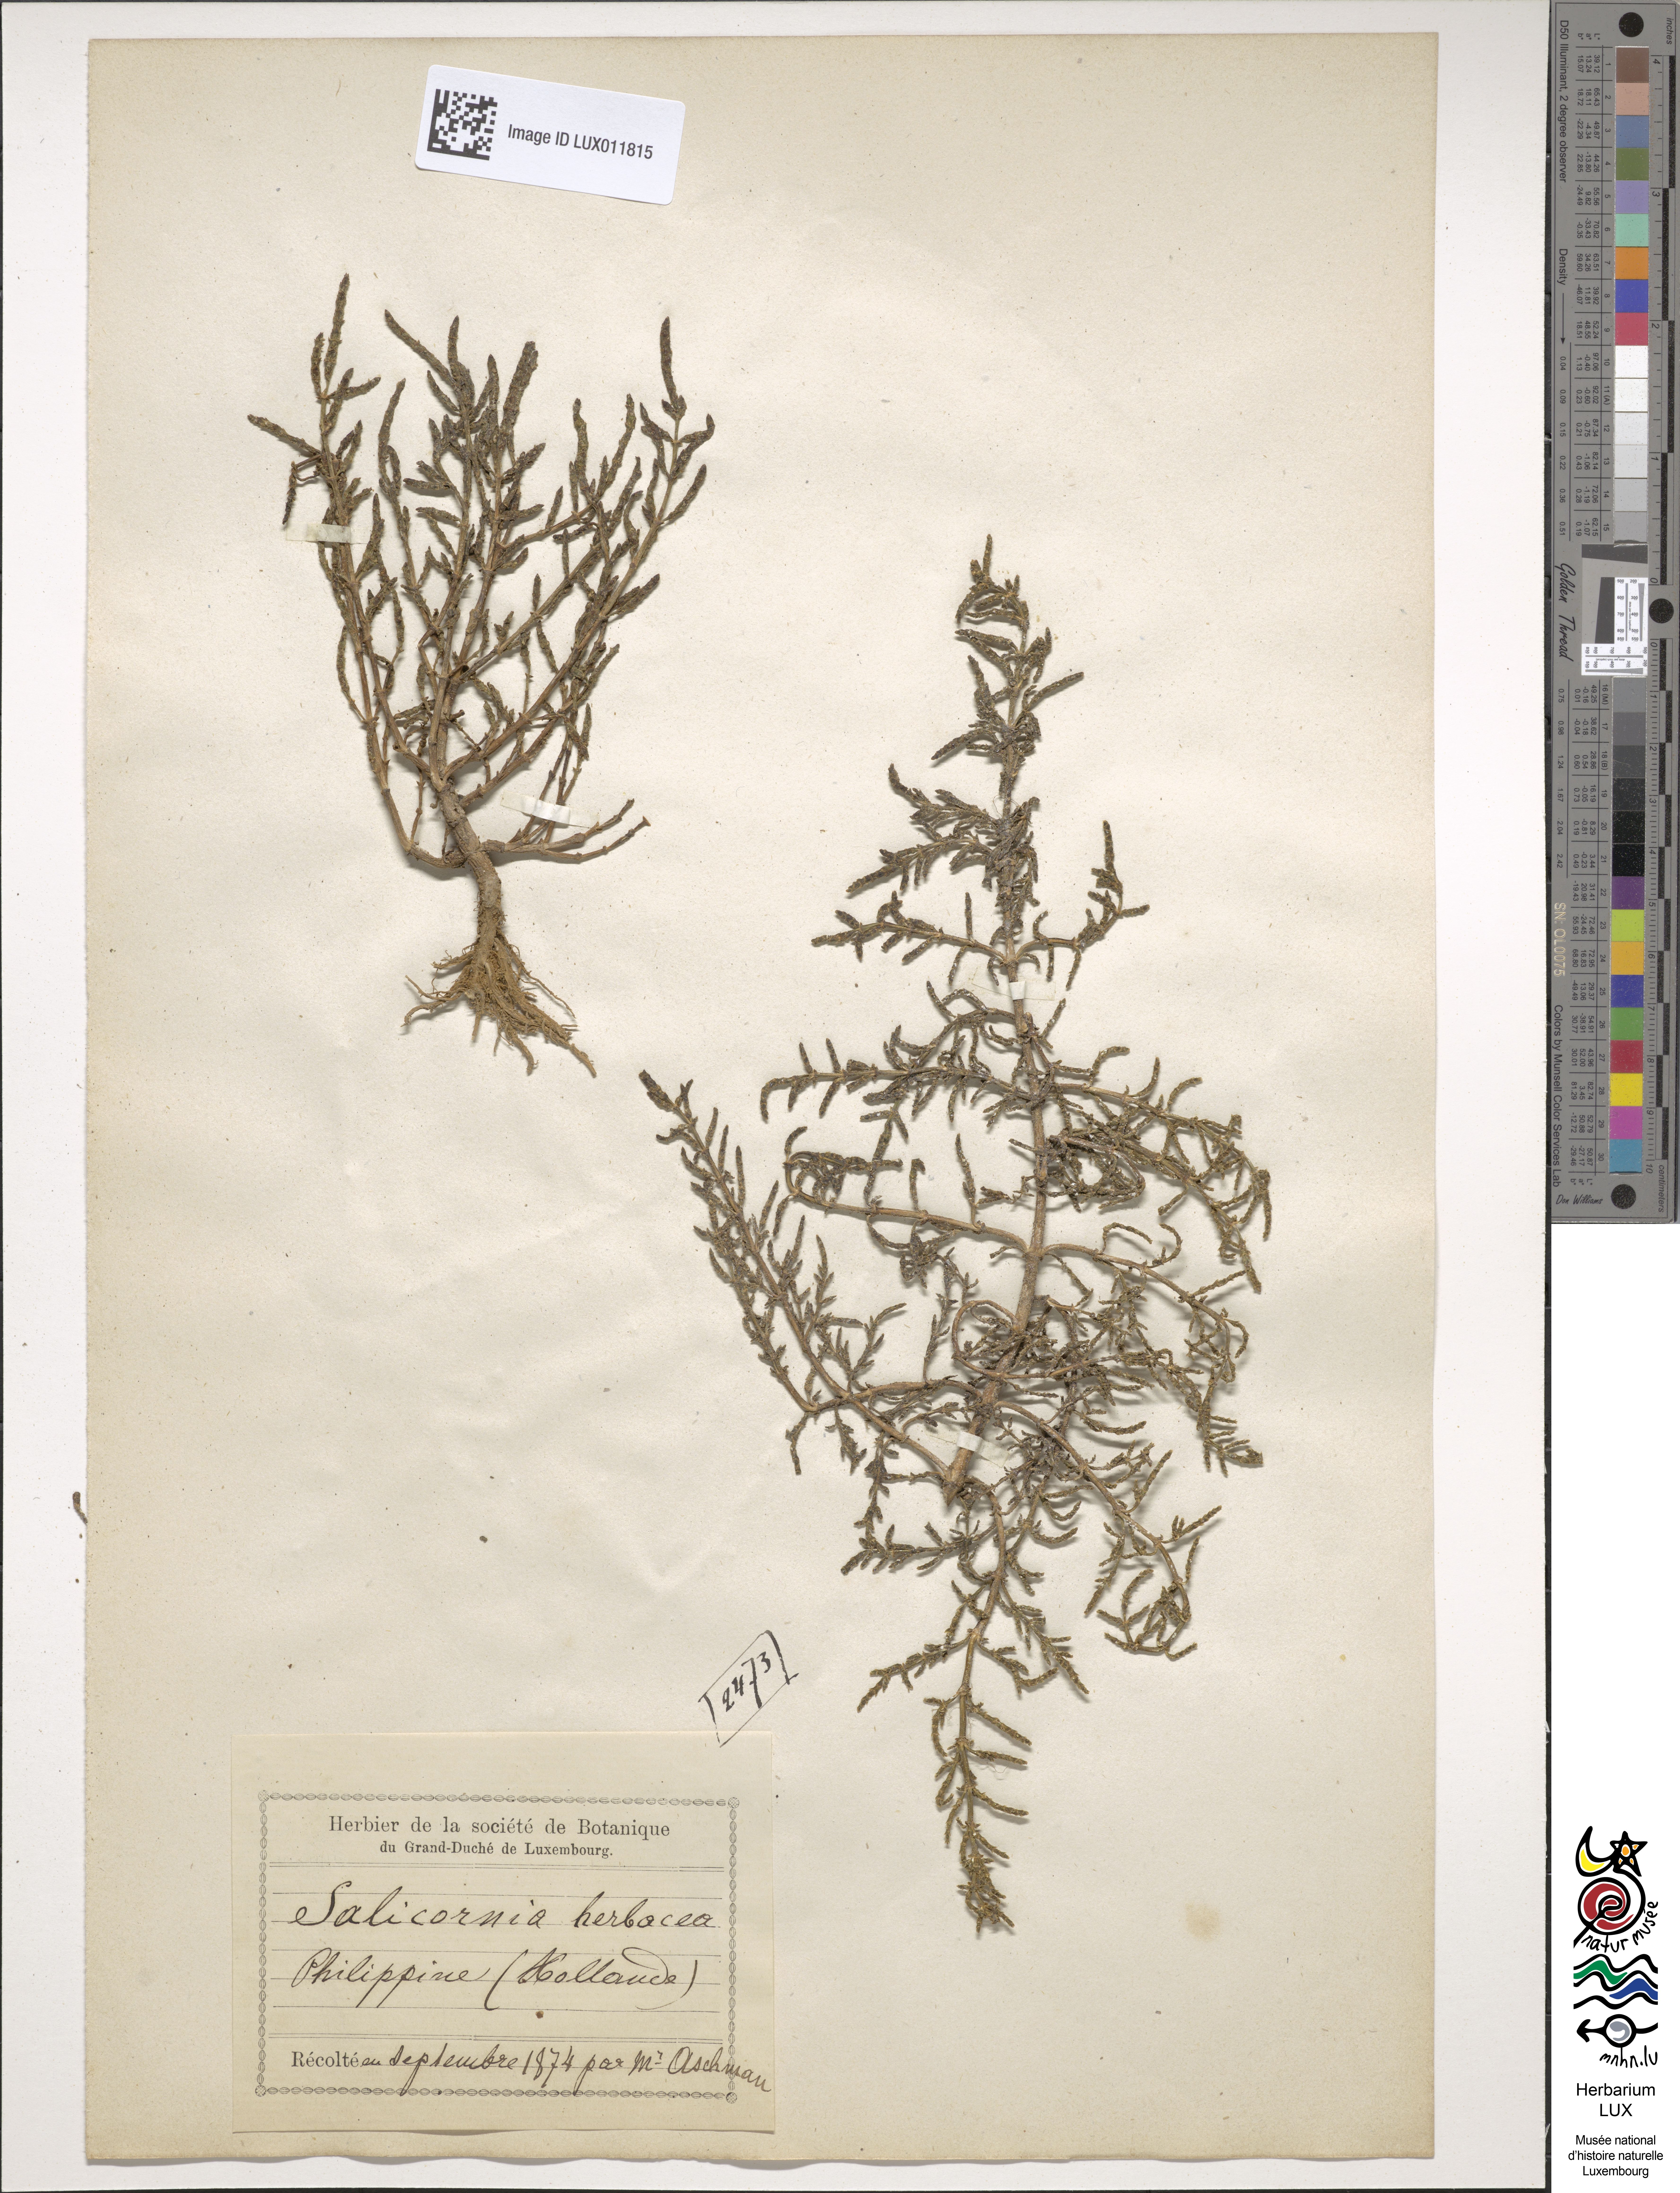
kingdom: Plantae
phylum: Tracheophyta
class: Magnoliopsida
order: Caryophyllales
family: Amaranthaceae
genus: Salicornia
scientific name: Salicornia europaea
